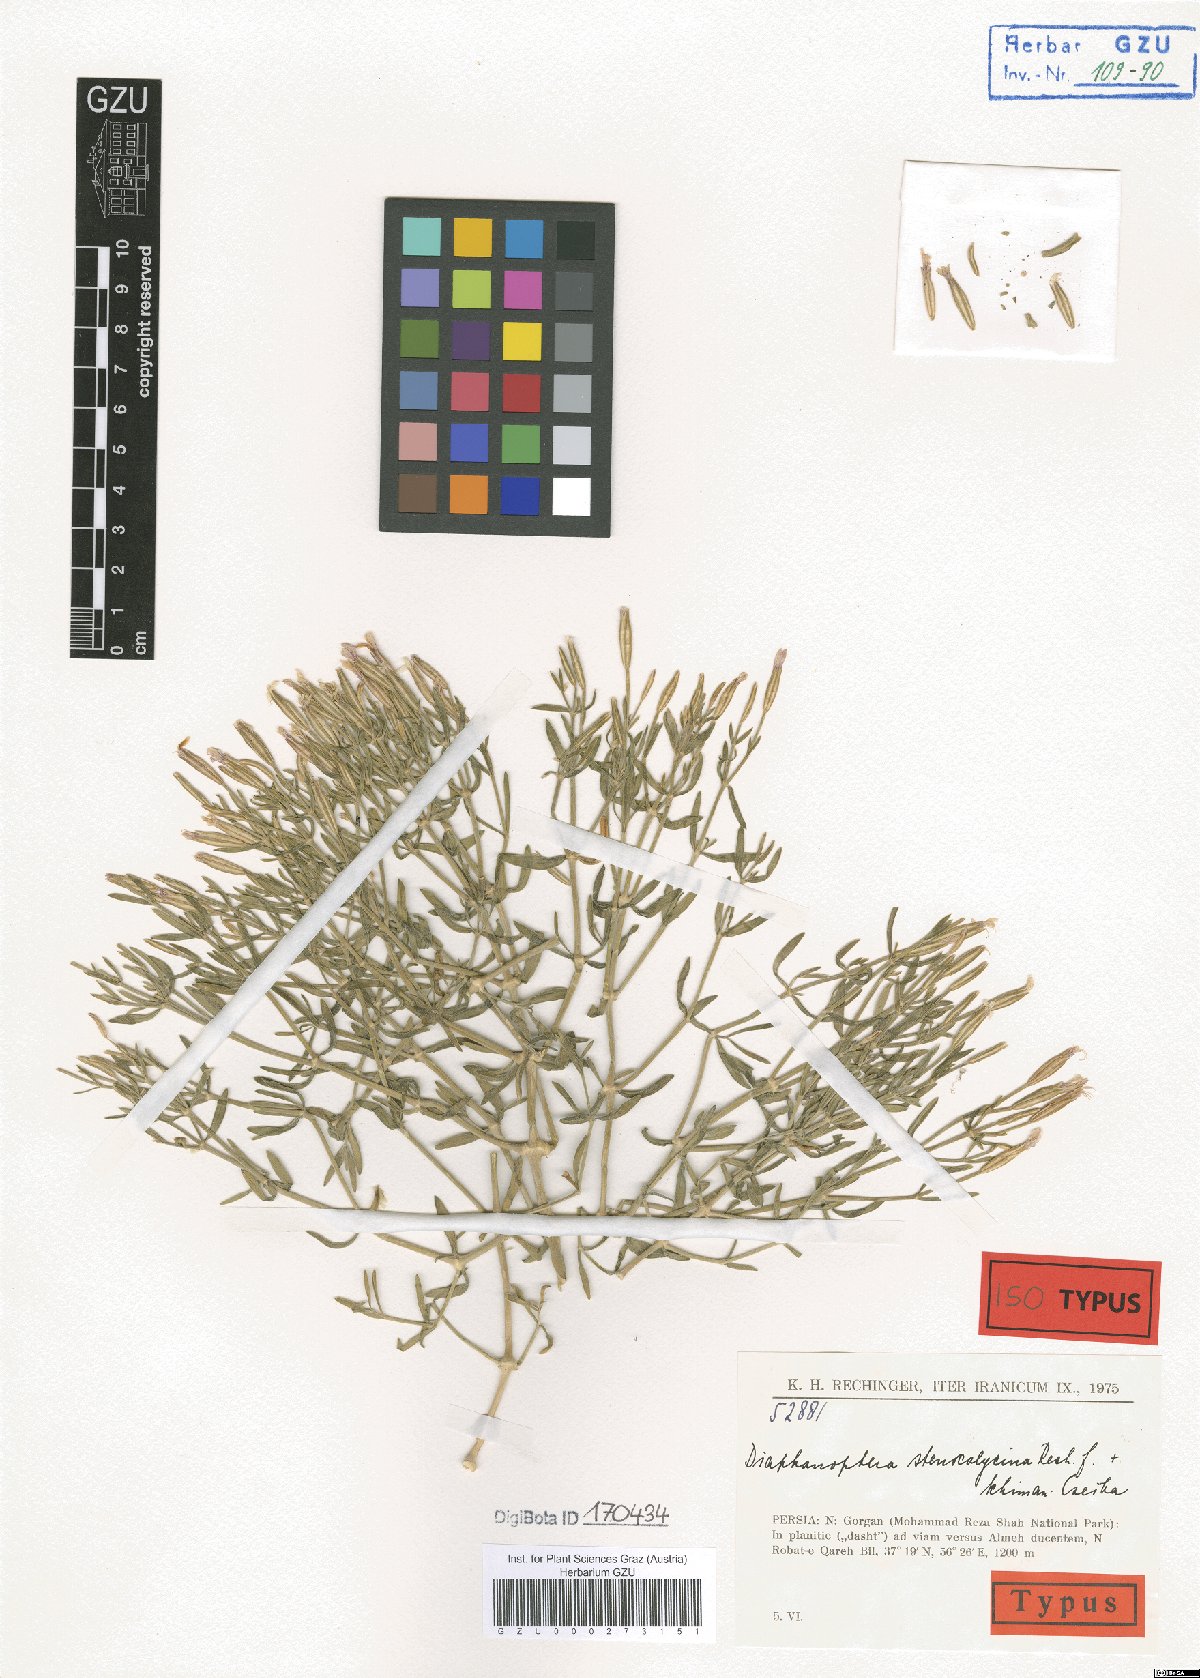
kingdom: Plantae
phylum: Tracheophyta
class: Magnoliopsida
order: Caryophyllales
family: Caryophyllaceae
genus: Acanthophyllum
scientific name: Acanthophyllum stenocalycinum
